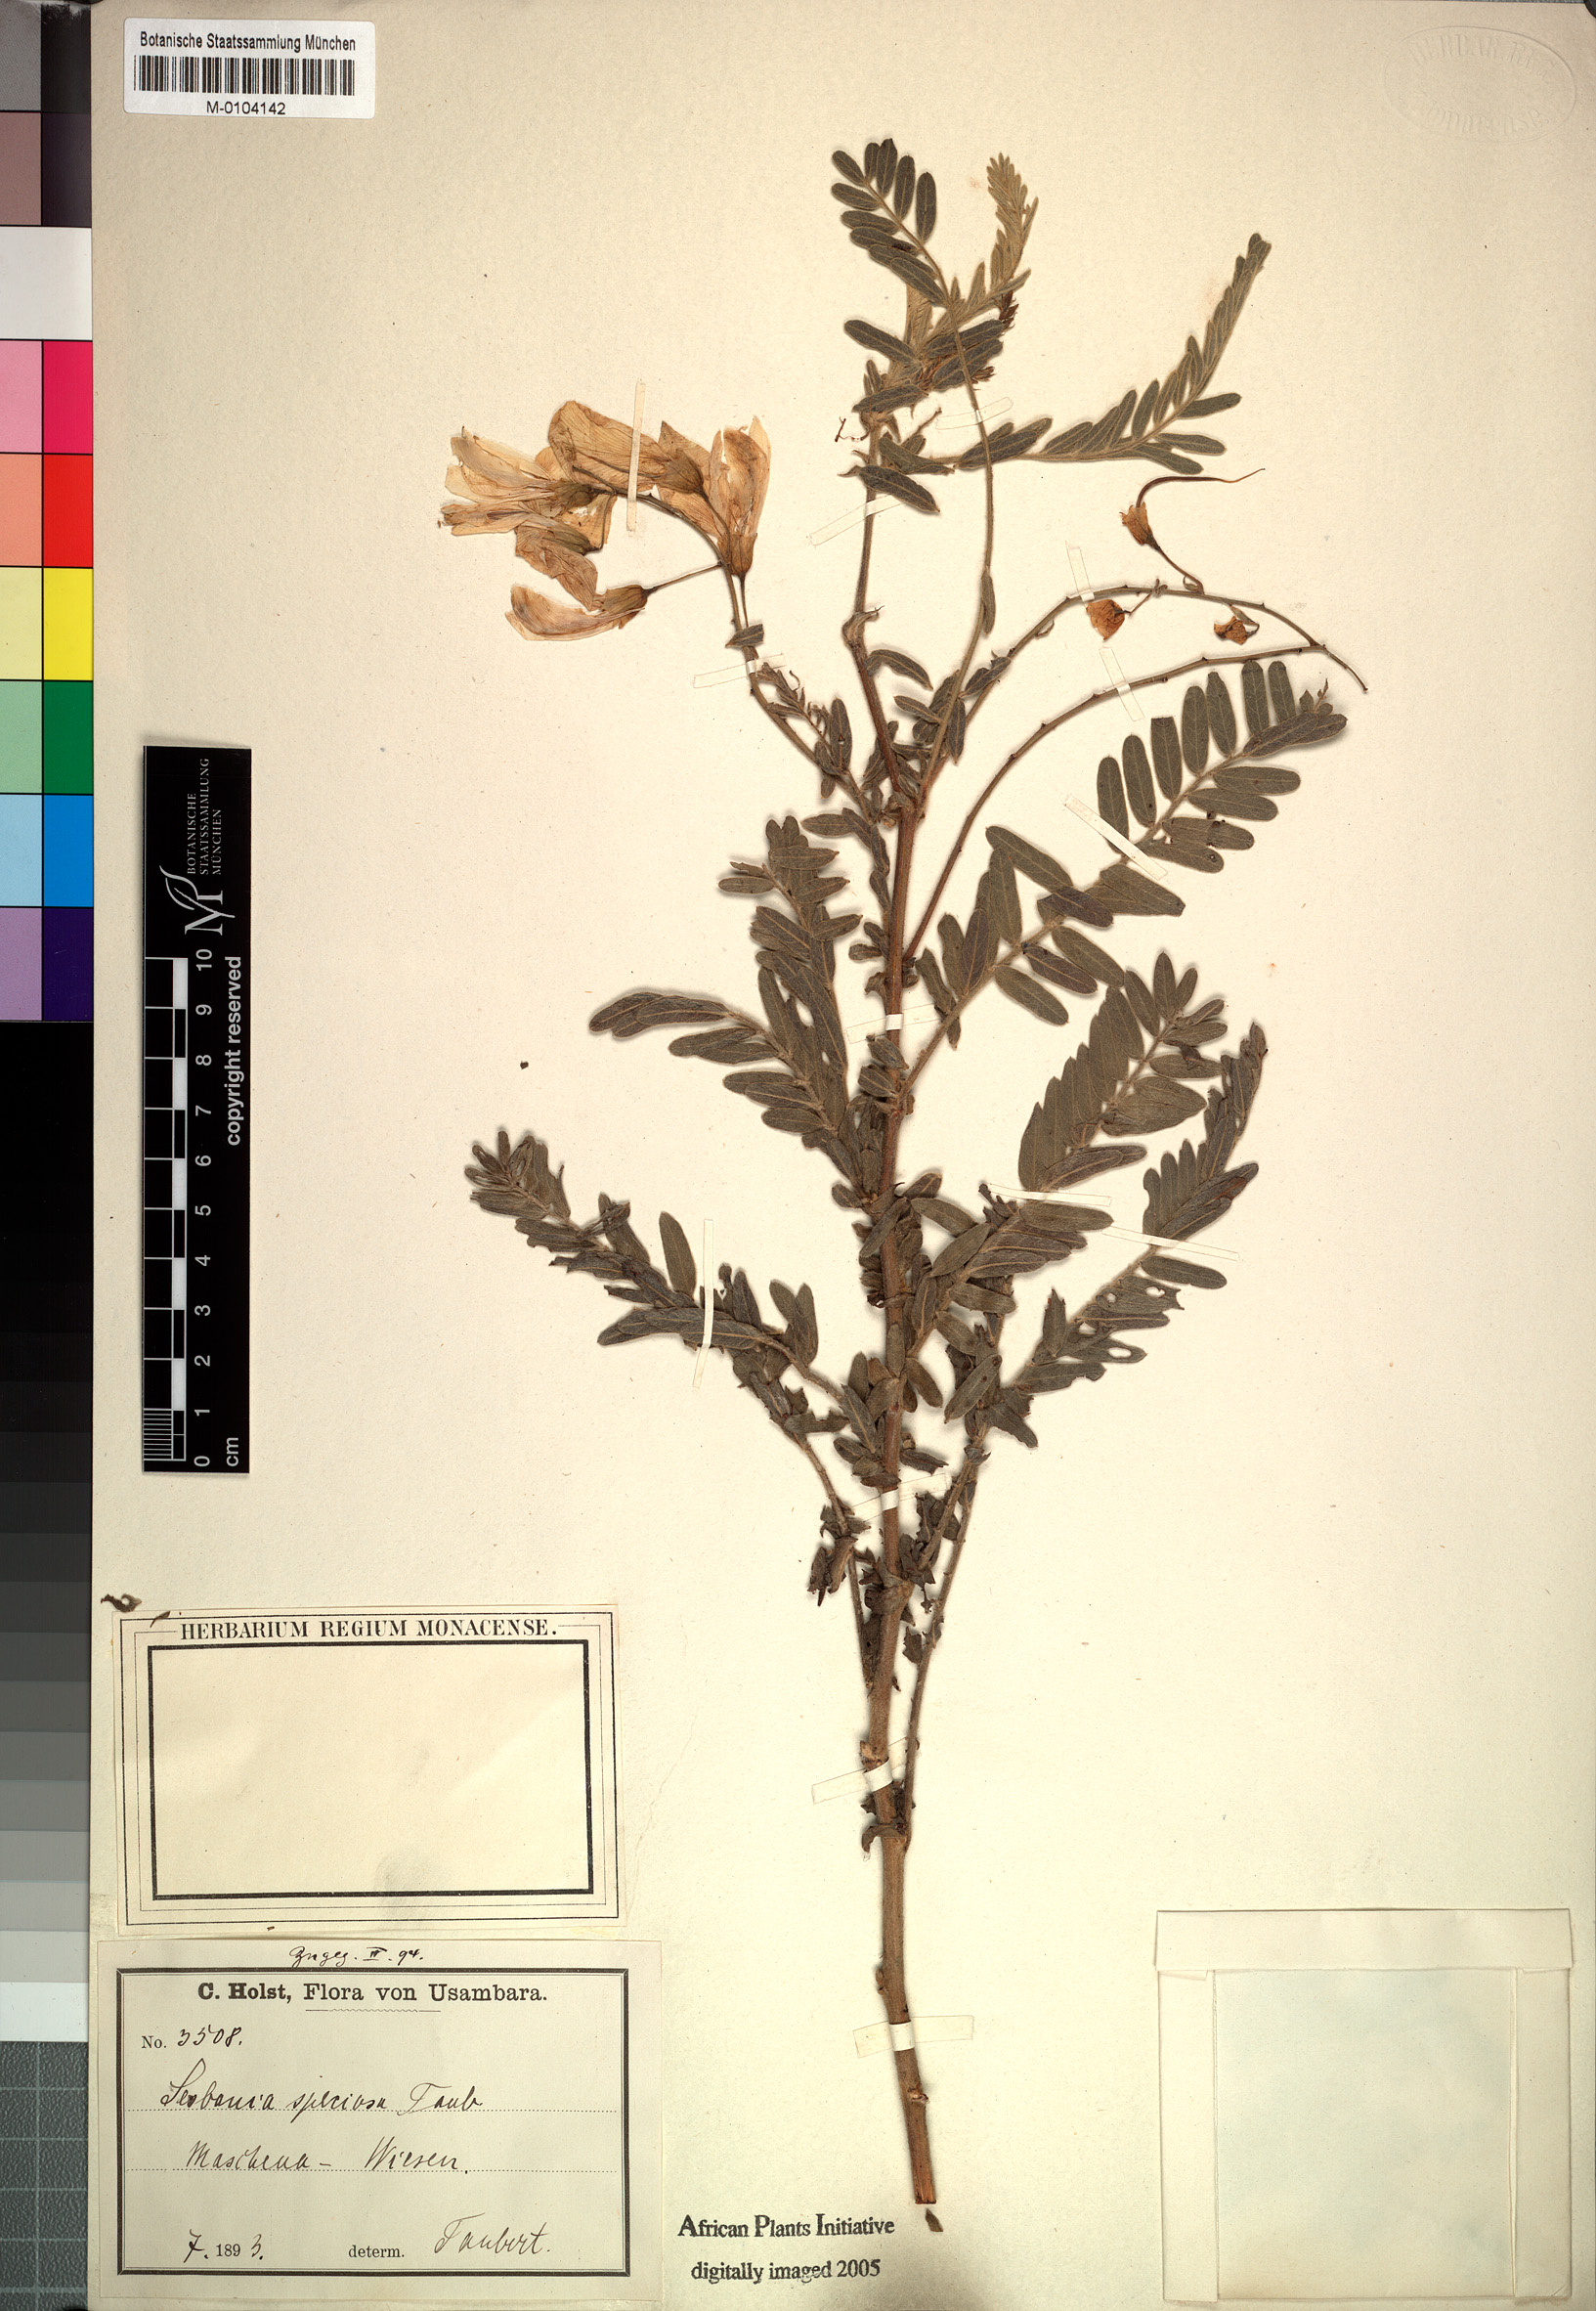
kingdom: Plantae
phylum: Tracheophyta
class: Magnoliopsida
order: Fabales
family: Fabaceae
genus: Sesbania
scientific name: Sesbania speciosa
